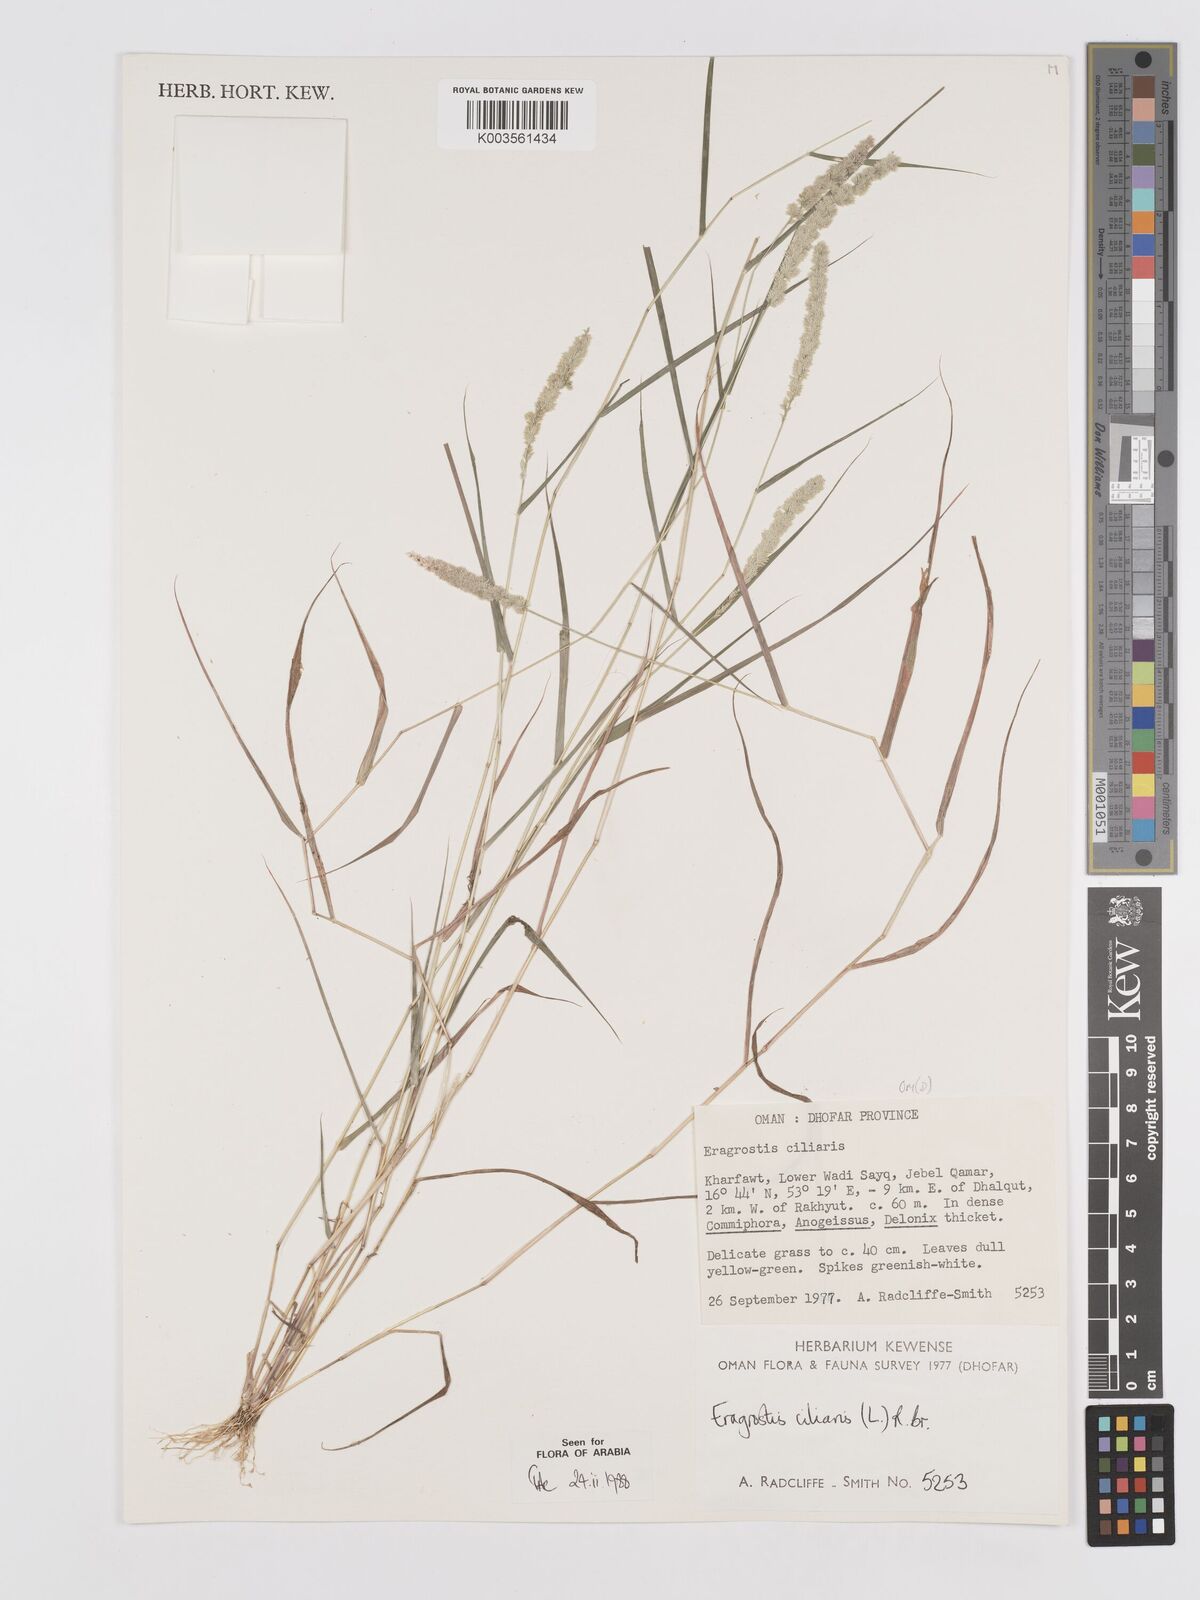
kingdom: Plantae
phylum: Tracheophyta
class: Liliopsida
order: Poales
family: Poaceae
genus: Eragrostis
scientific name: Eragrostis ciliaris
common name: Gophertail lovegrass
